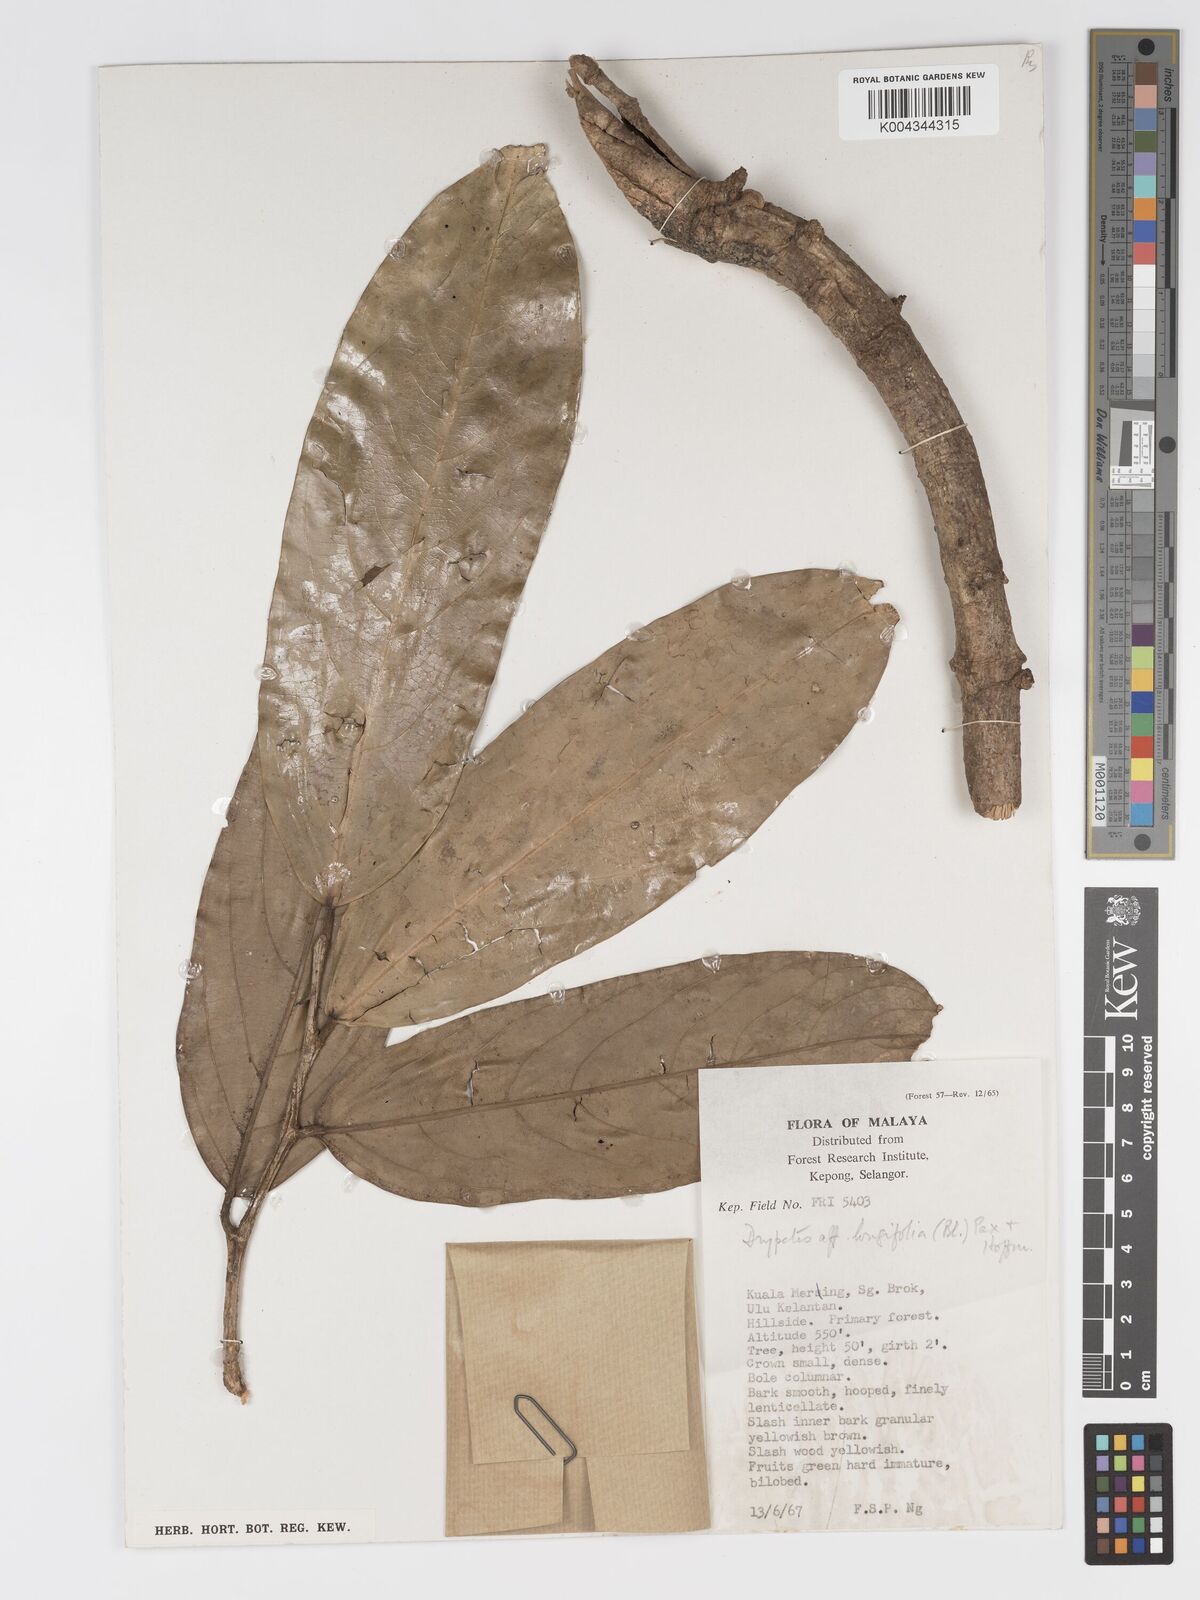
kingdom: Plantae
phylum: Tracheophyta
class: Magnoliopsida
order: Malpighiales
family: Putranjivaceae
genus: Drypetes
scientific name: Drypetes longifolia
